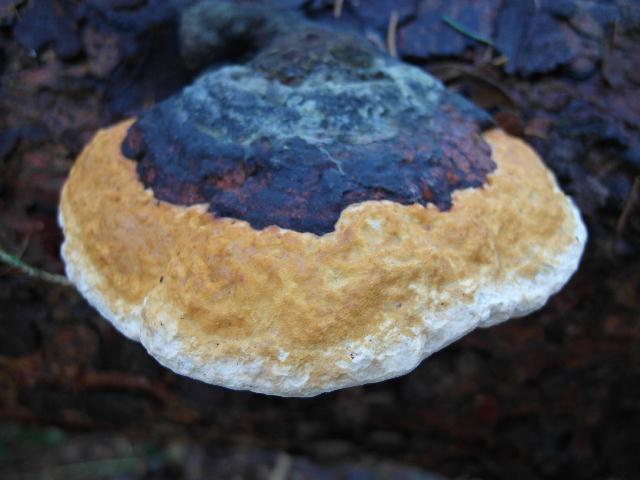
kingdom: Fungi
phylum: Basidiomycota
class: Agaricomycetes
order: Polyporales
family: Fomitopsidaceae
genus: Fomitopsis
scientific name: Fomitopsis pinicola
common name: randbæltet hovporesvamp
